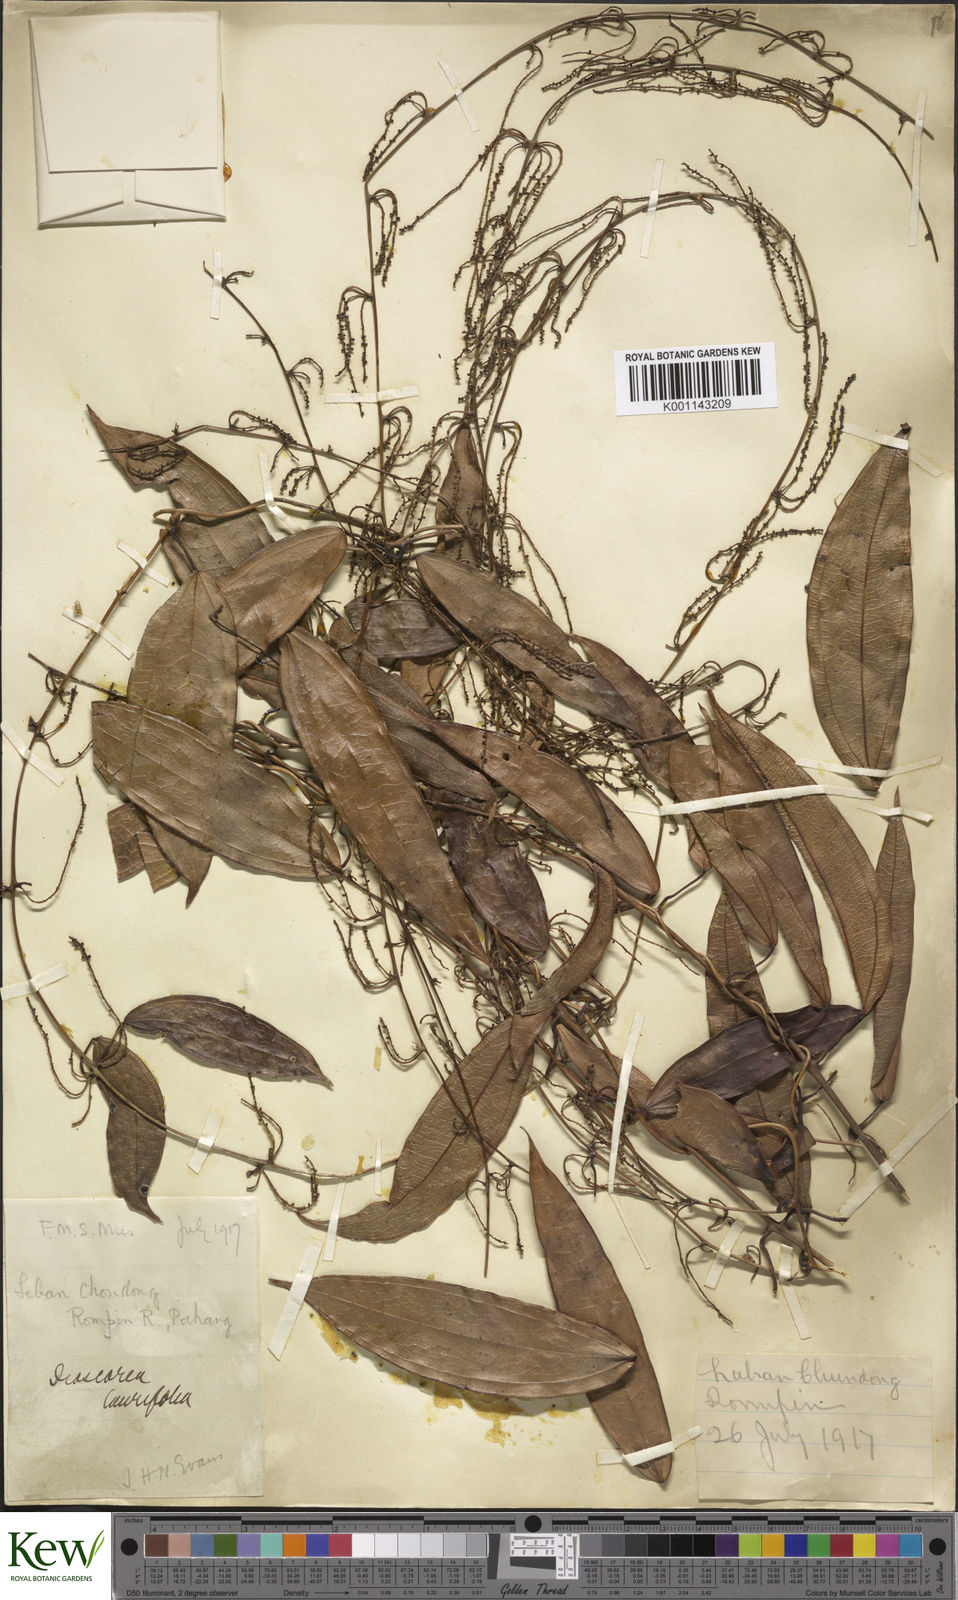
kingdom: Plantae
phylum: Tracheophyta
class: Liliopsida
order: Dioscoreales
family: Dioscoreaceae
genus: Dioscorea
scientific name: Dioscorea laurifolia
